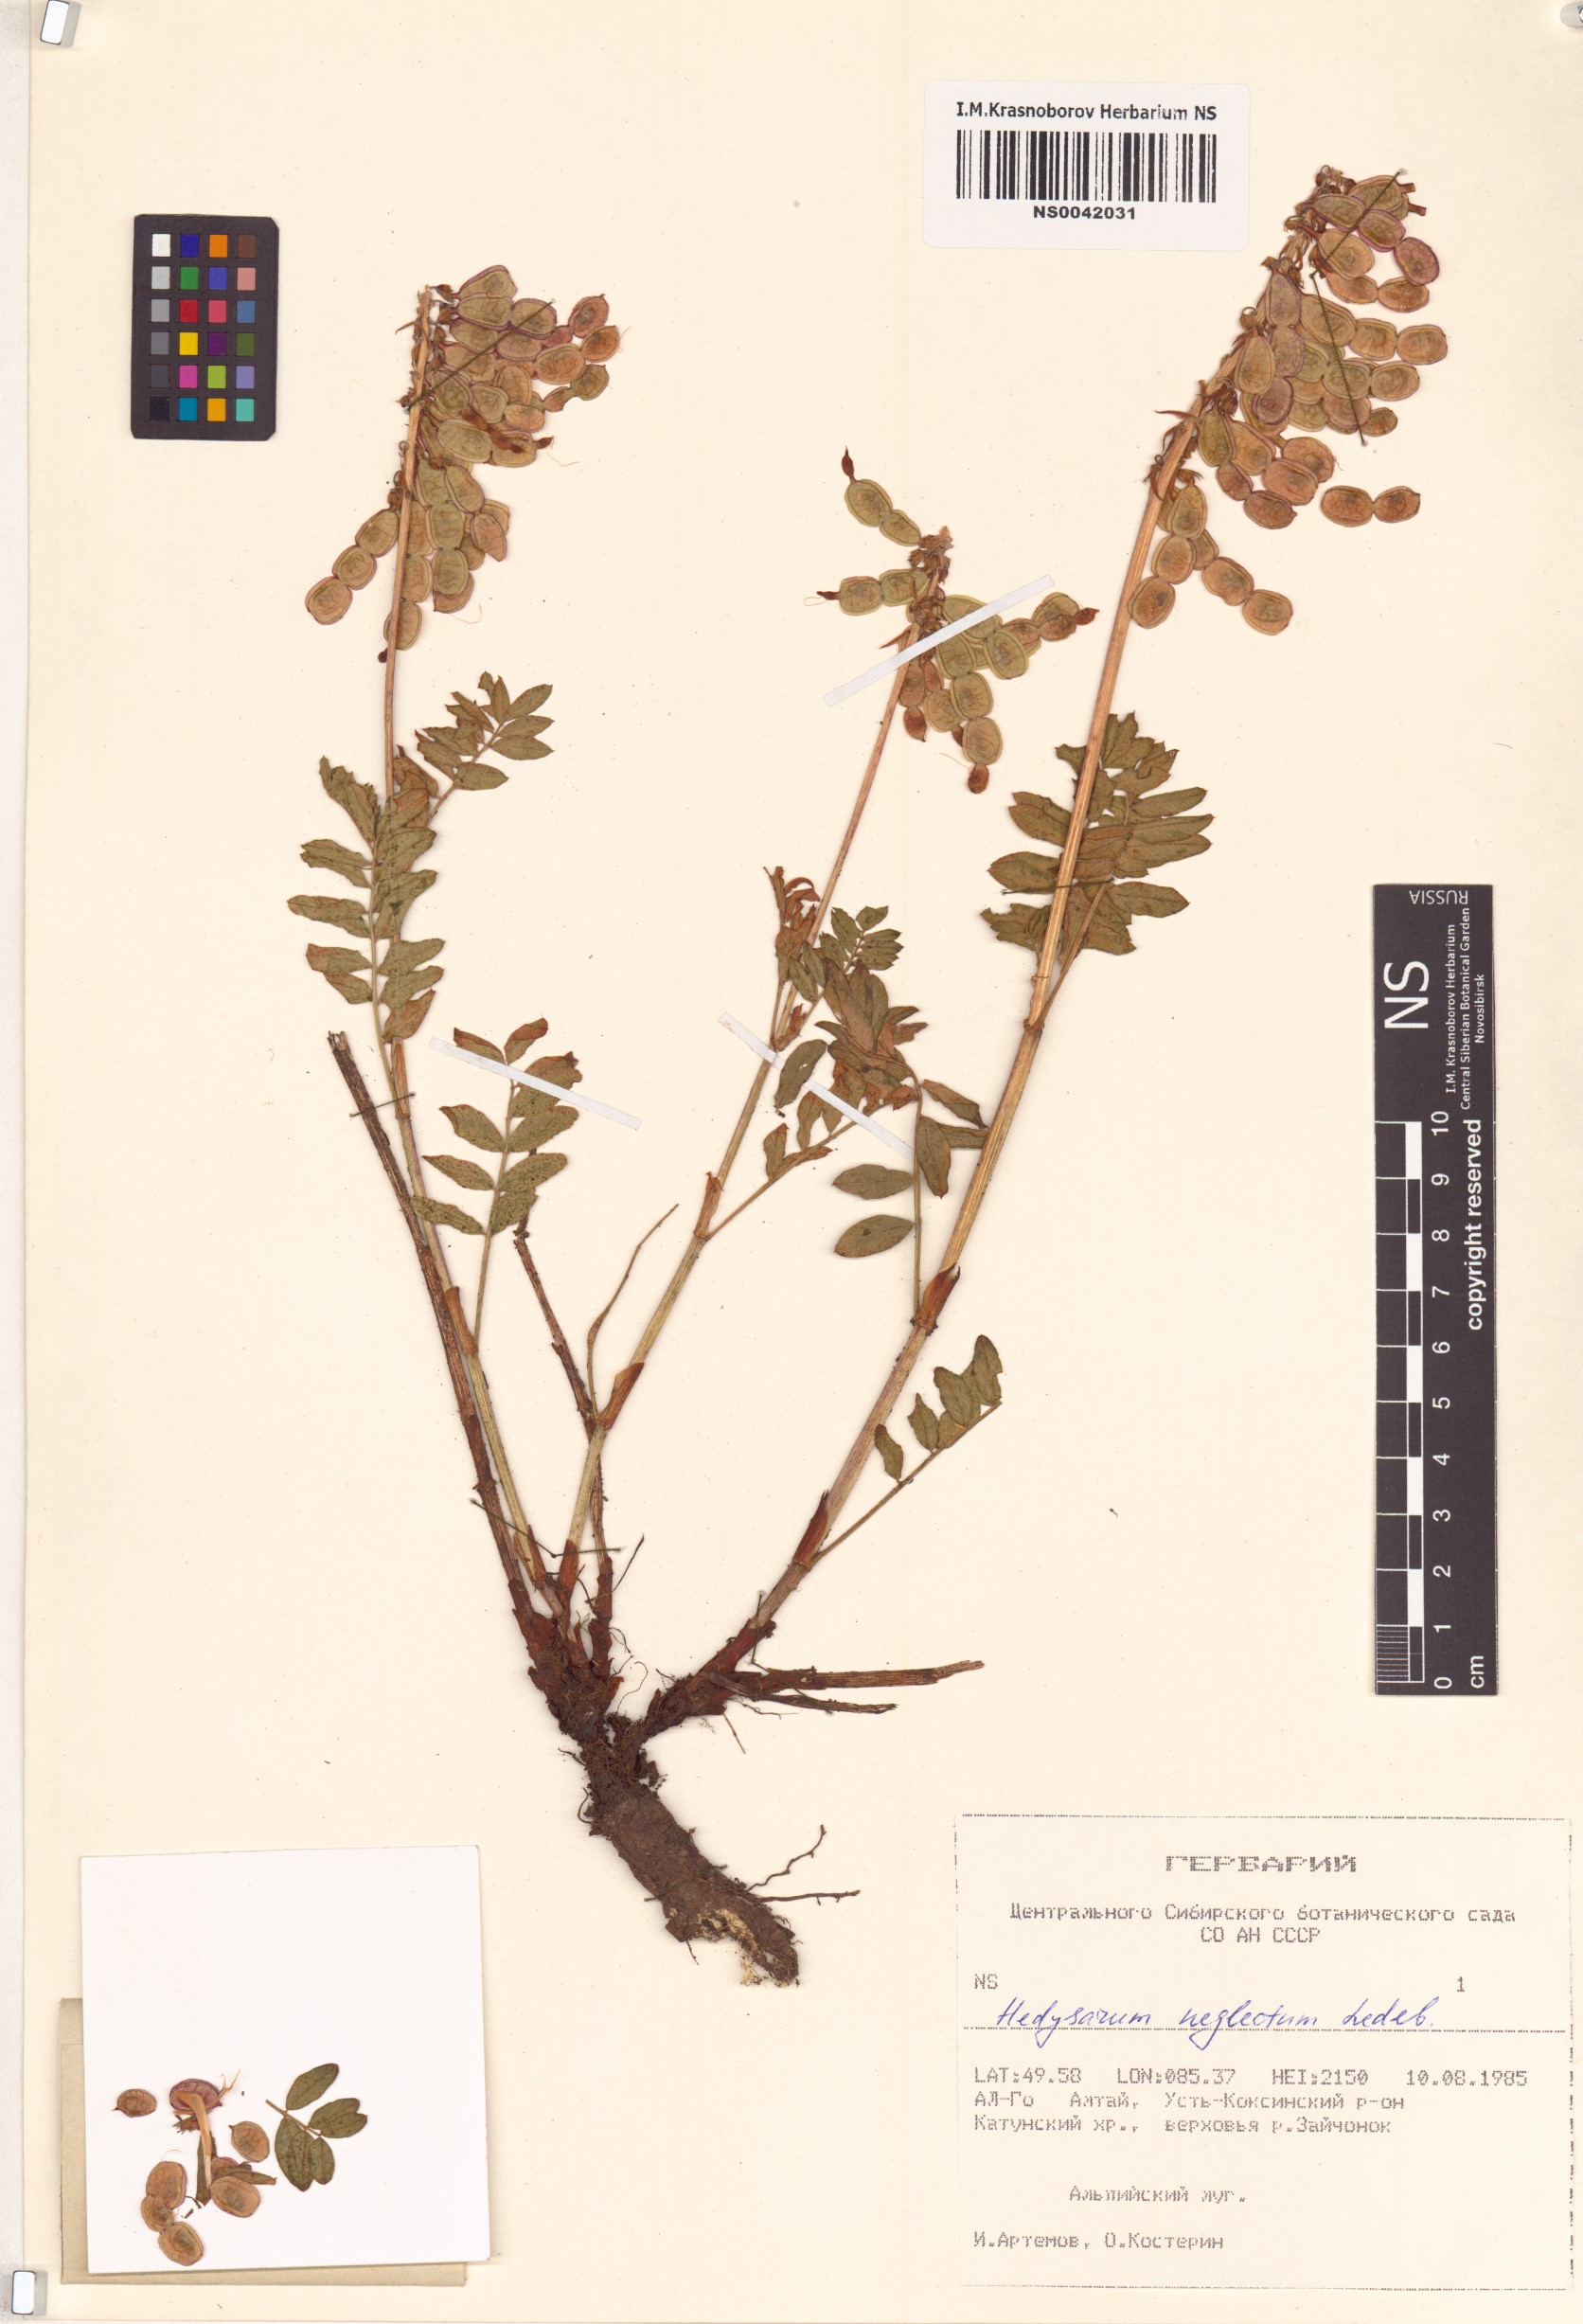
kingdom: Plantae
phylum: Tracheophyta
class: Magnoliopsida
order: Fabales
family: Fabaceae
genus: Hedysarum
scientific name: Hedysarum neglectum
